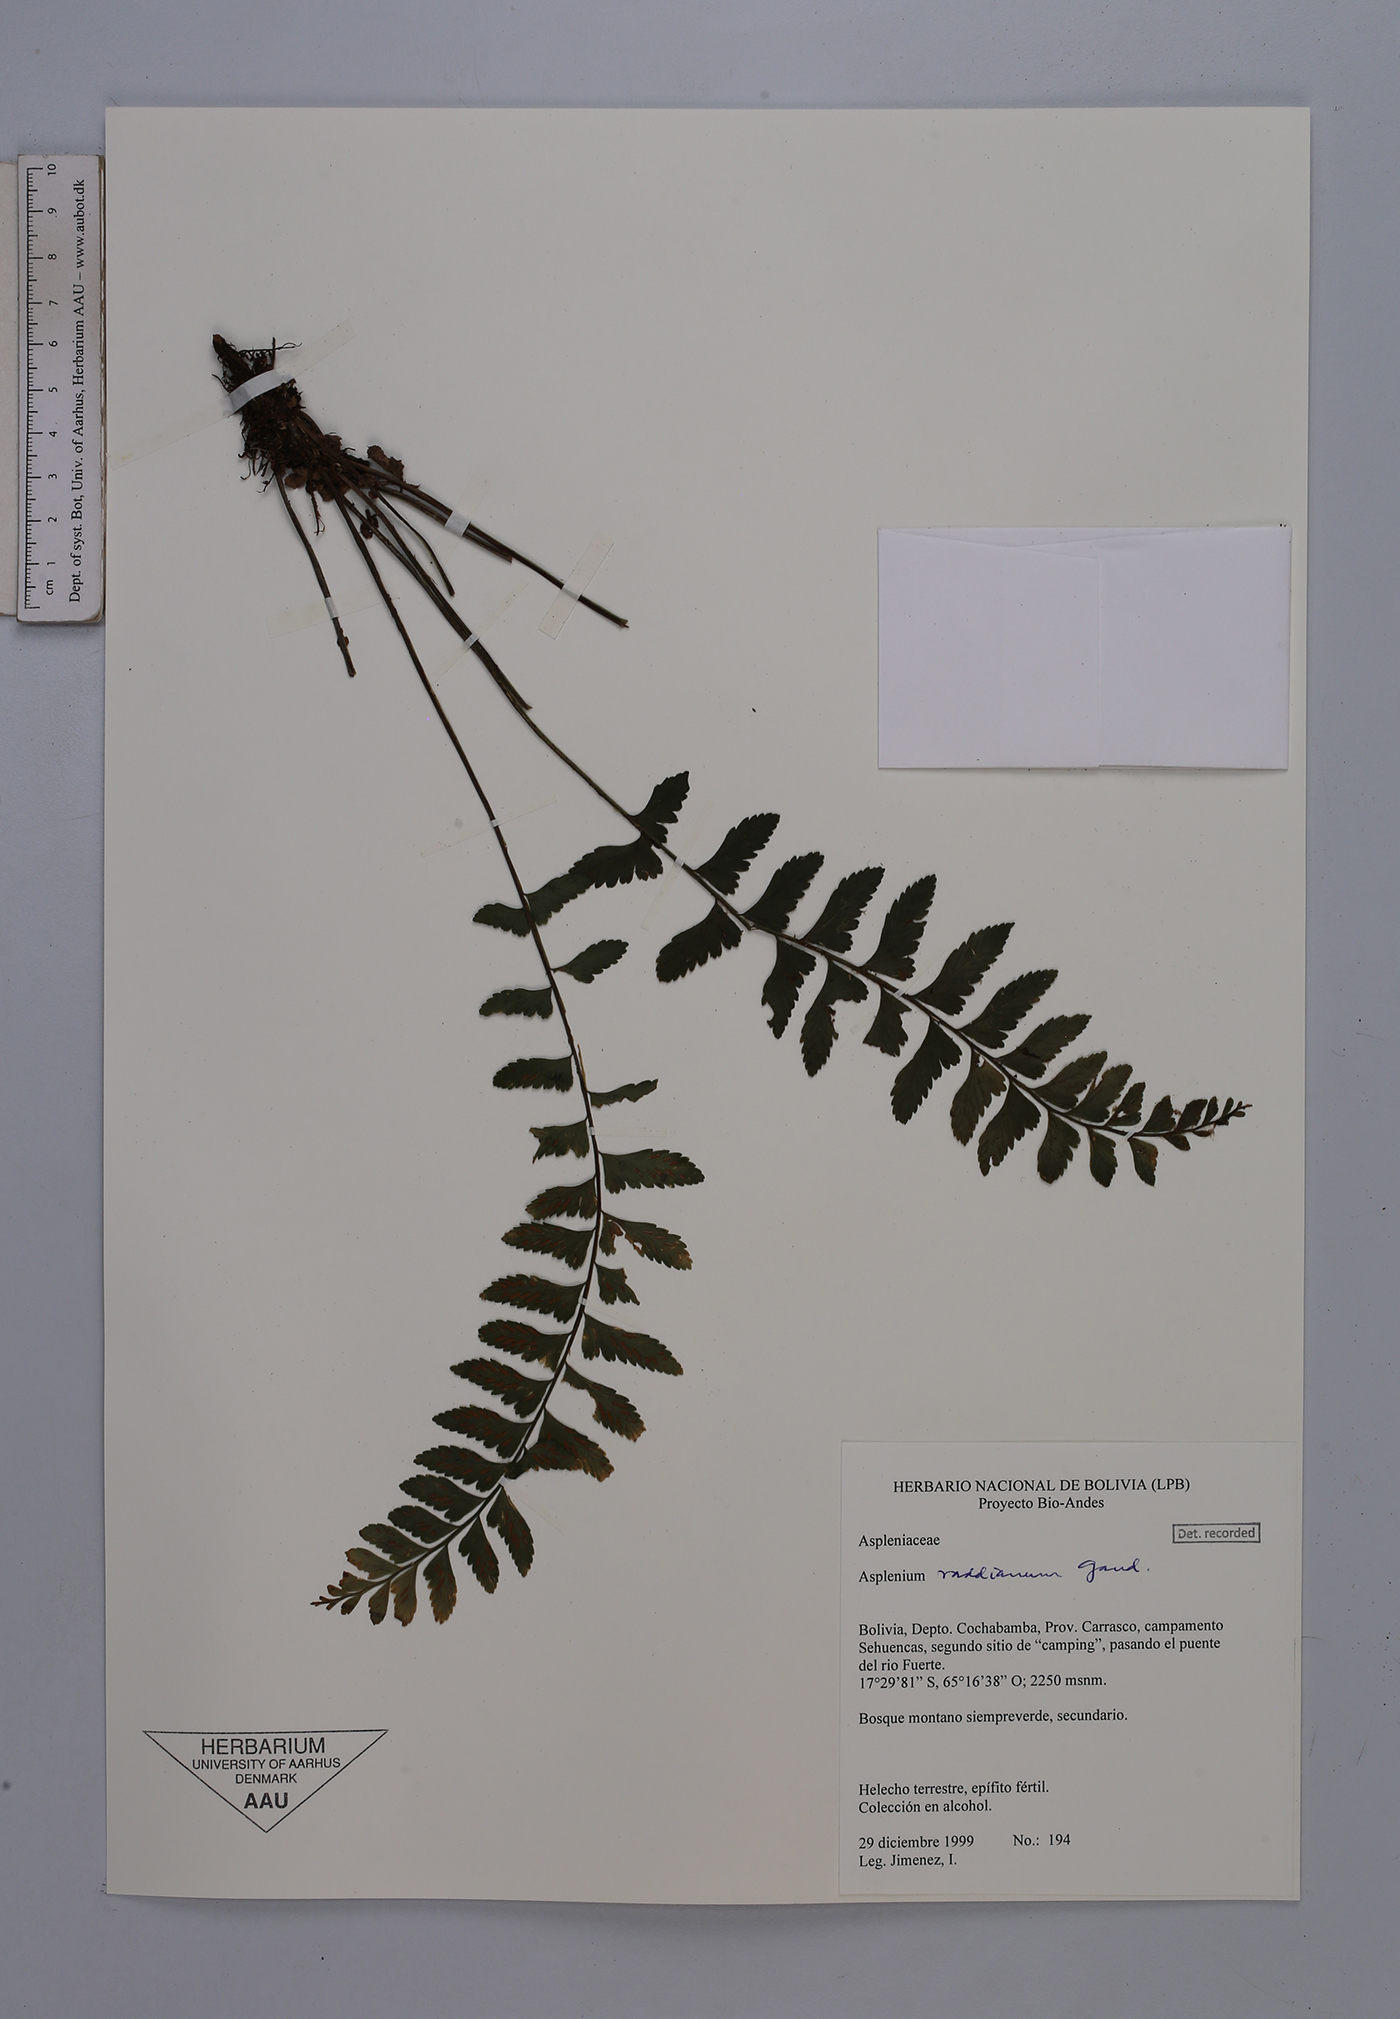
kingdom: Plantae
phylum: Tracheophyta
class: Polypodiopsida
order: Polypodiales
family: Aspleniaceae
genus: Asplenium
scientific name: Asplenium raddianum
